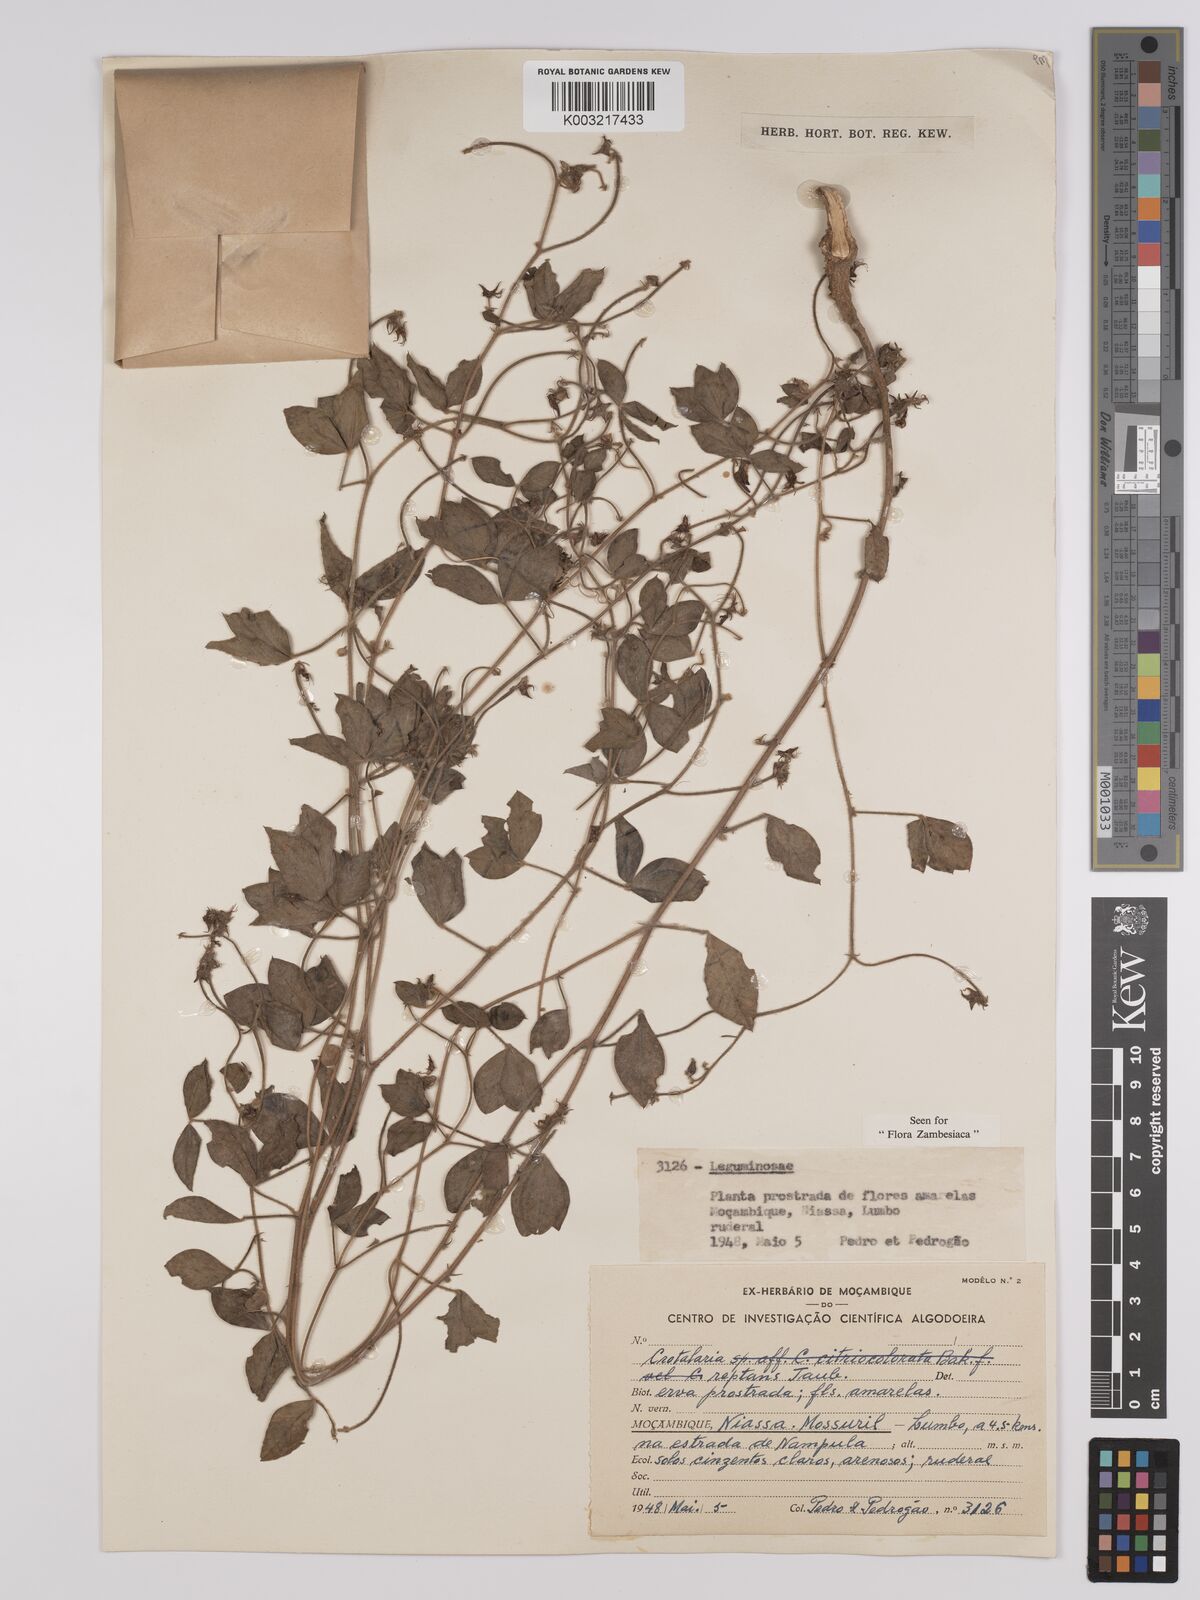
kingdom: Plantae
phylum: Tracheophyta
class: Magnoliopsida
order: Fabales
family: Fabaceae
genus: Crotalaria
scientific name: Crotalaria reptans
